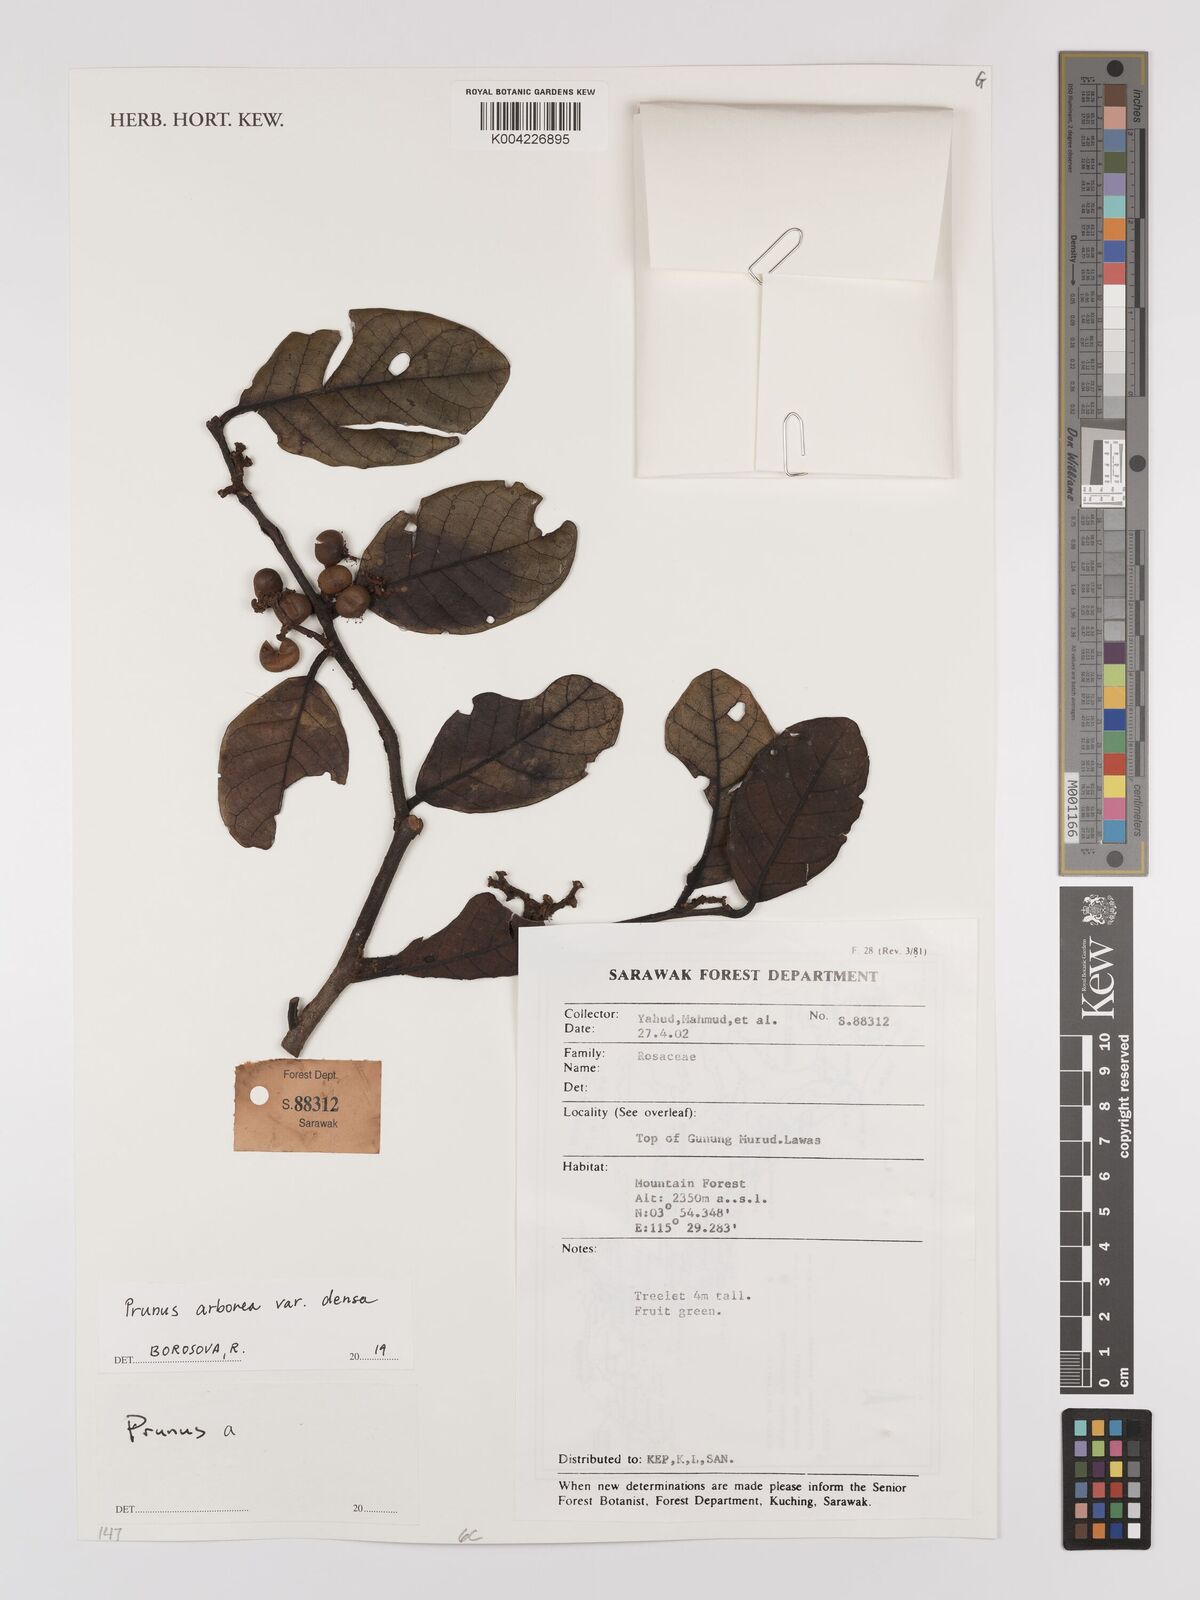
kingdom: Plantae
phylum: Tracheophyta
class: Magnoliopsida
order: Rosales
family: Rosaceae
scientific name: Rosaceae
